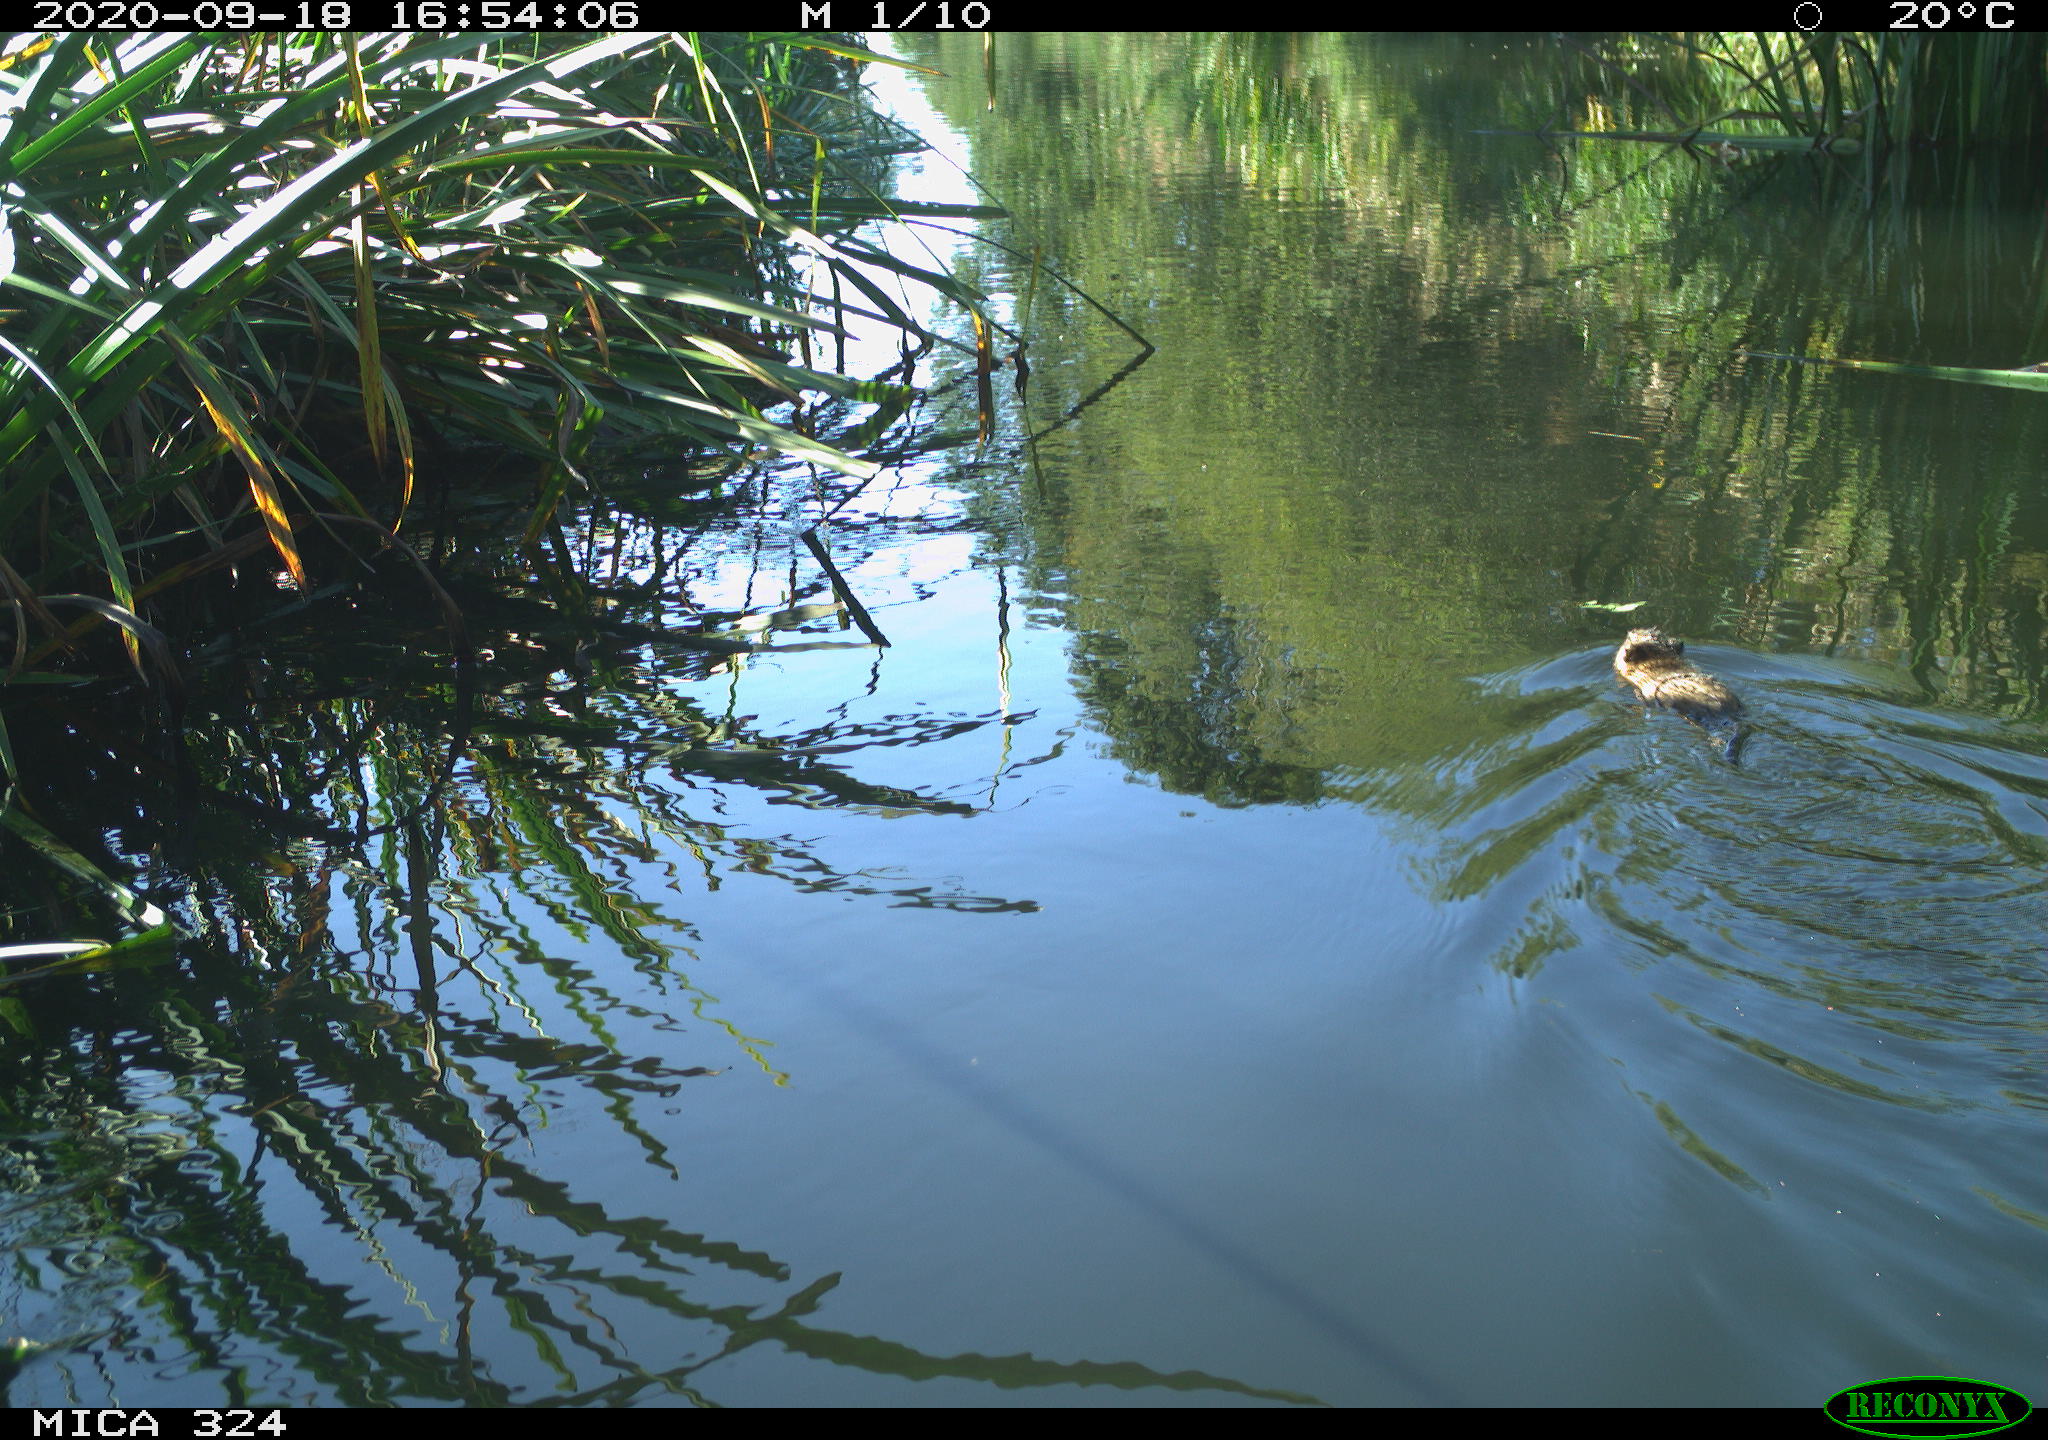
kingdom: Animalia
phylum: Chordata
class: Mammalia
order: Rodentia
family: Myocastoridae
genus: Myocastor
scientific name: Myocastor coypus
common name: Coypu
